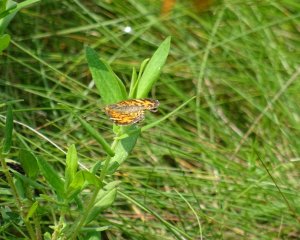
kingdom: Animalia
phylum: Arthropoda
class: Insecta
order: Lepidoptera
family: Nymphalidae
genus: Phyciodes
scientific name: Phyciodes
